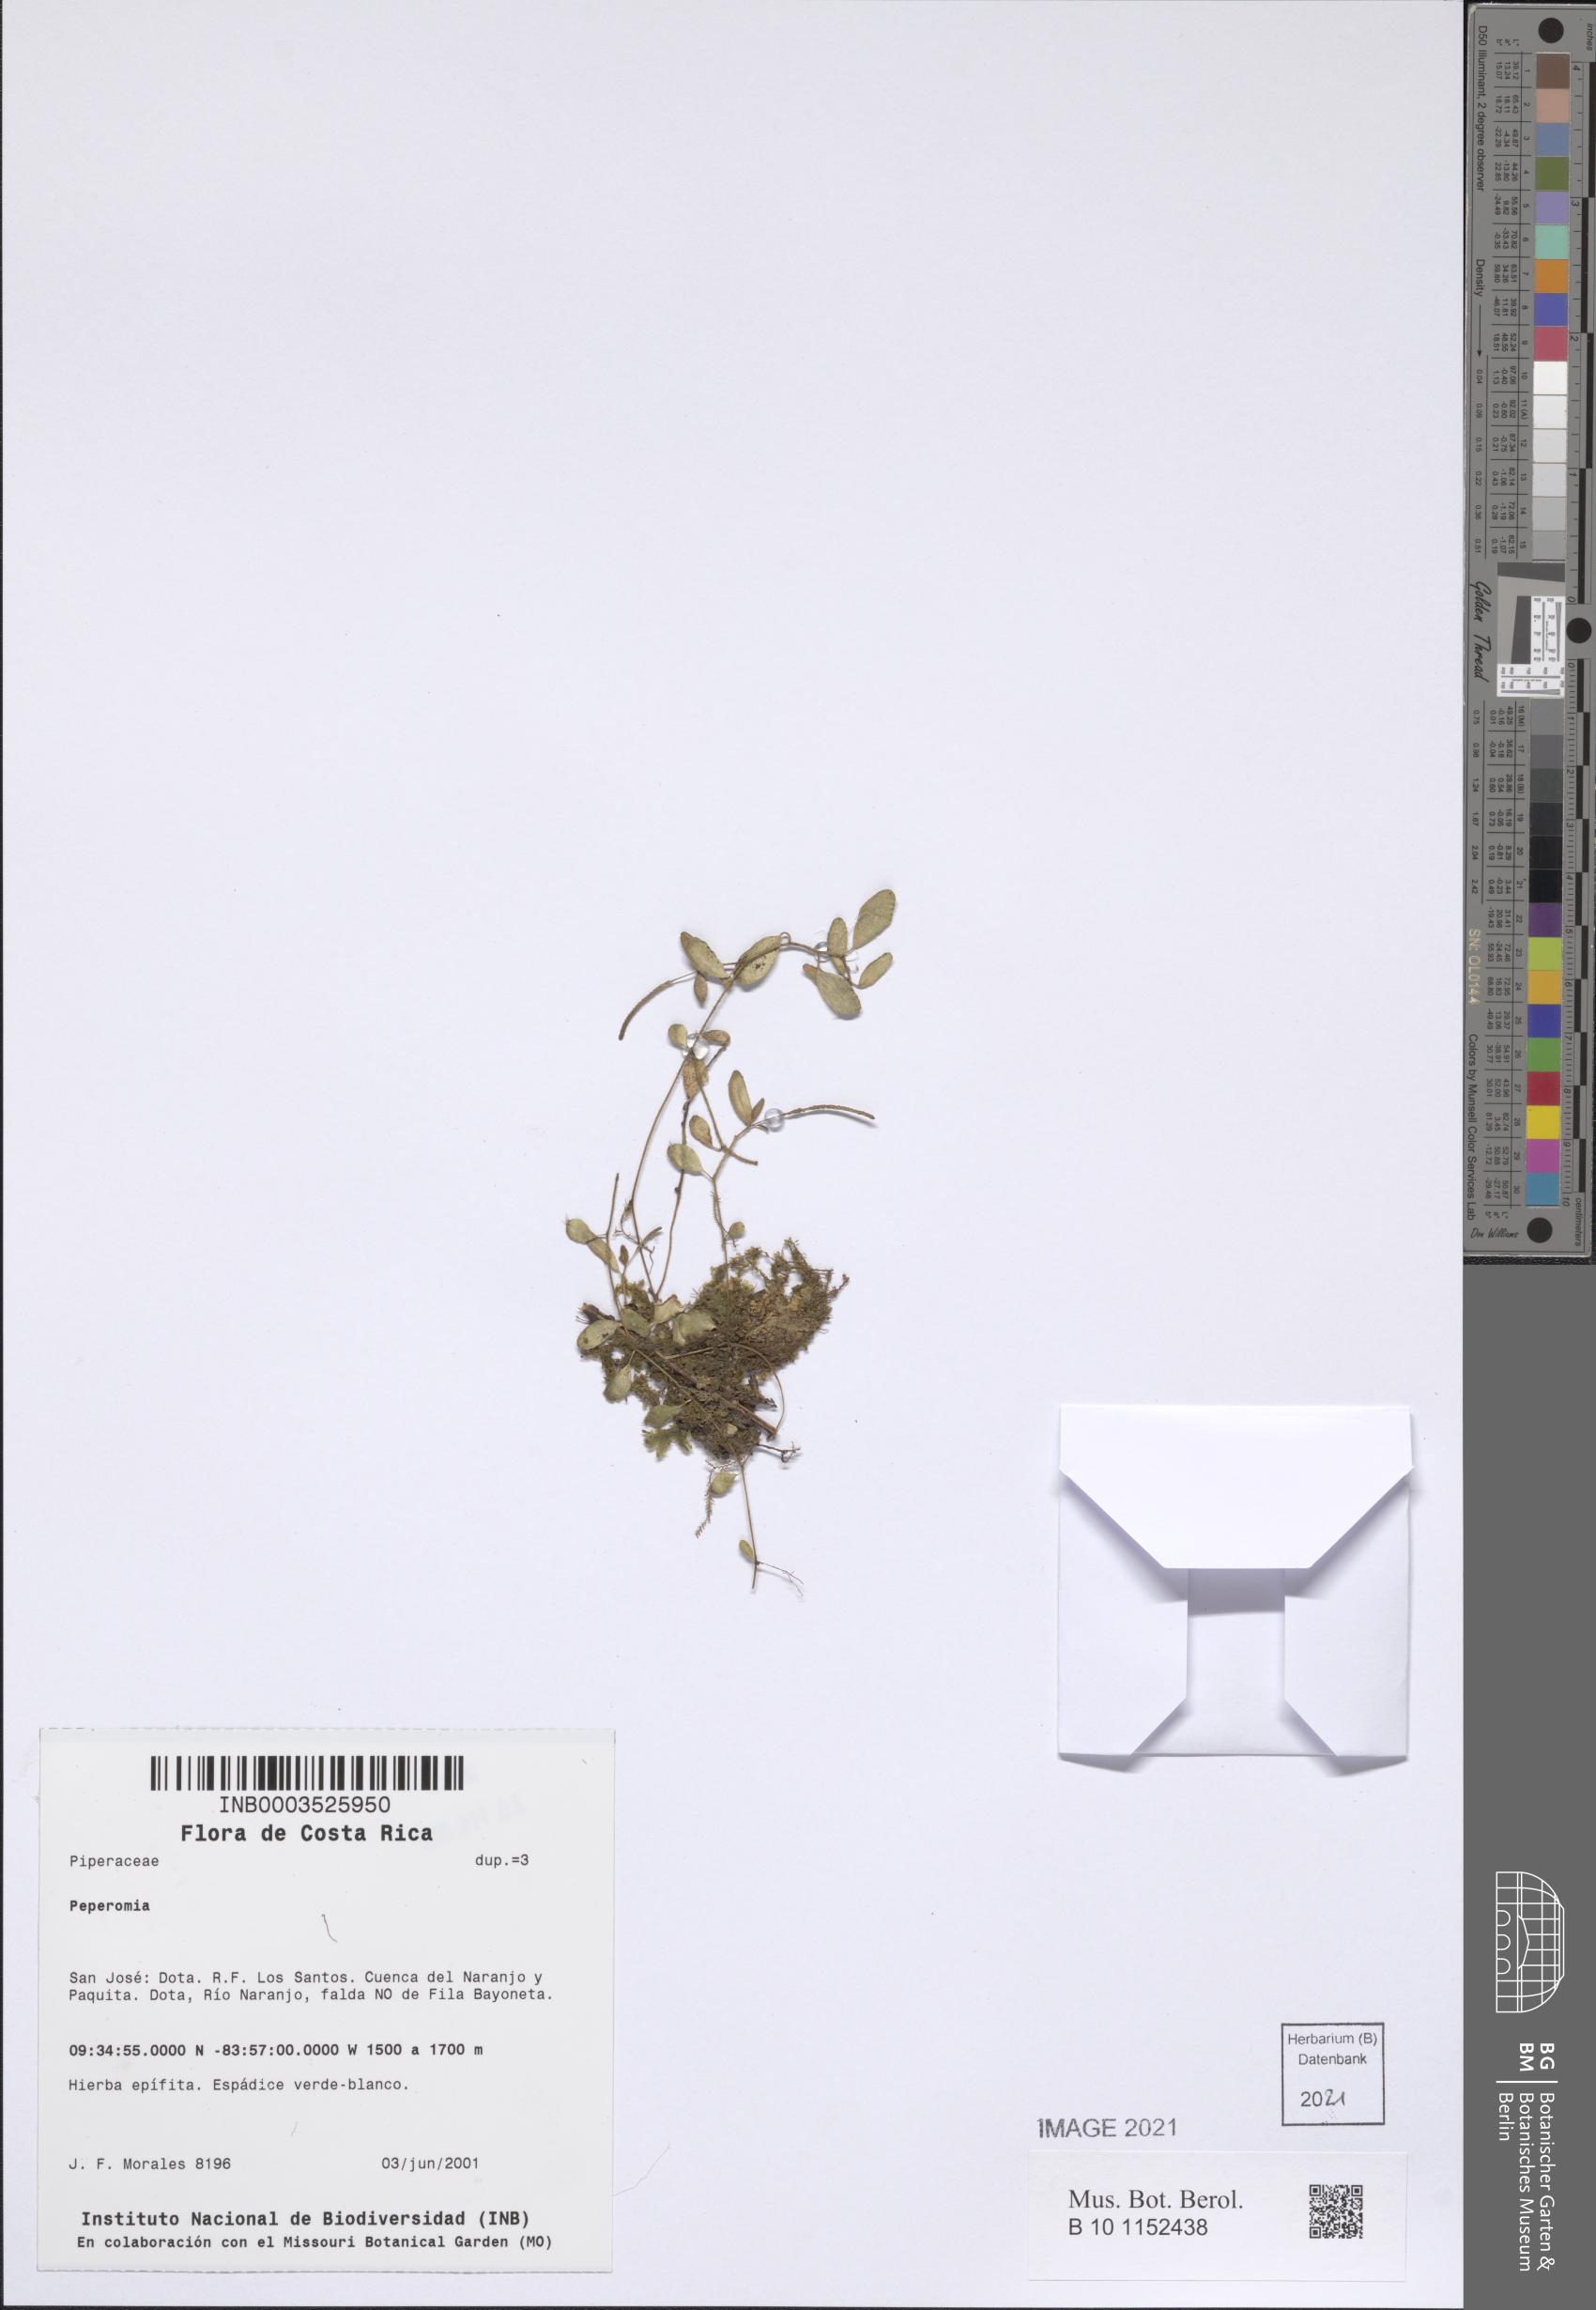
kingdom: Plantae
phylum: Tracheophyta
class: Magnoliopsida
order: Piperales
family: Piperaceae
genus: Peperomia
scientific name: Peperomia
